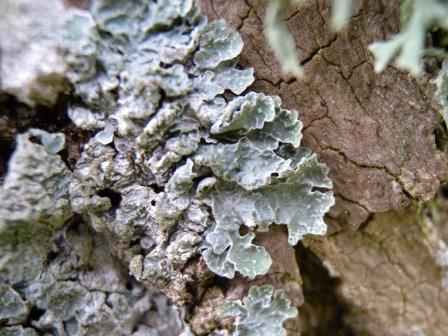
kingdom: Fungi
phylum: Ascomycota
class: Lecanoromycetes
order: Lecanorales
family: Parmeliaceae
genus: Parmelia
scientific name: Parmelia sulcata
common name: rynket skållav
